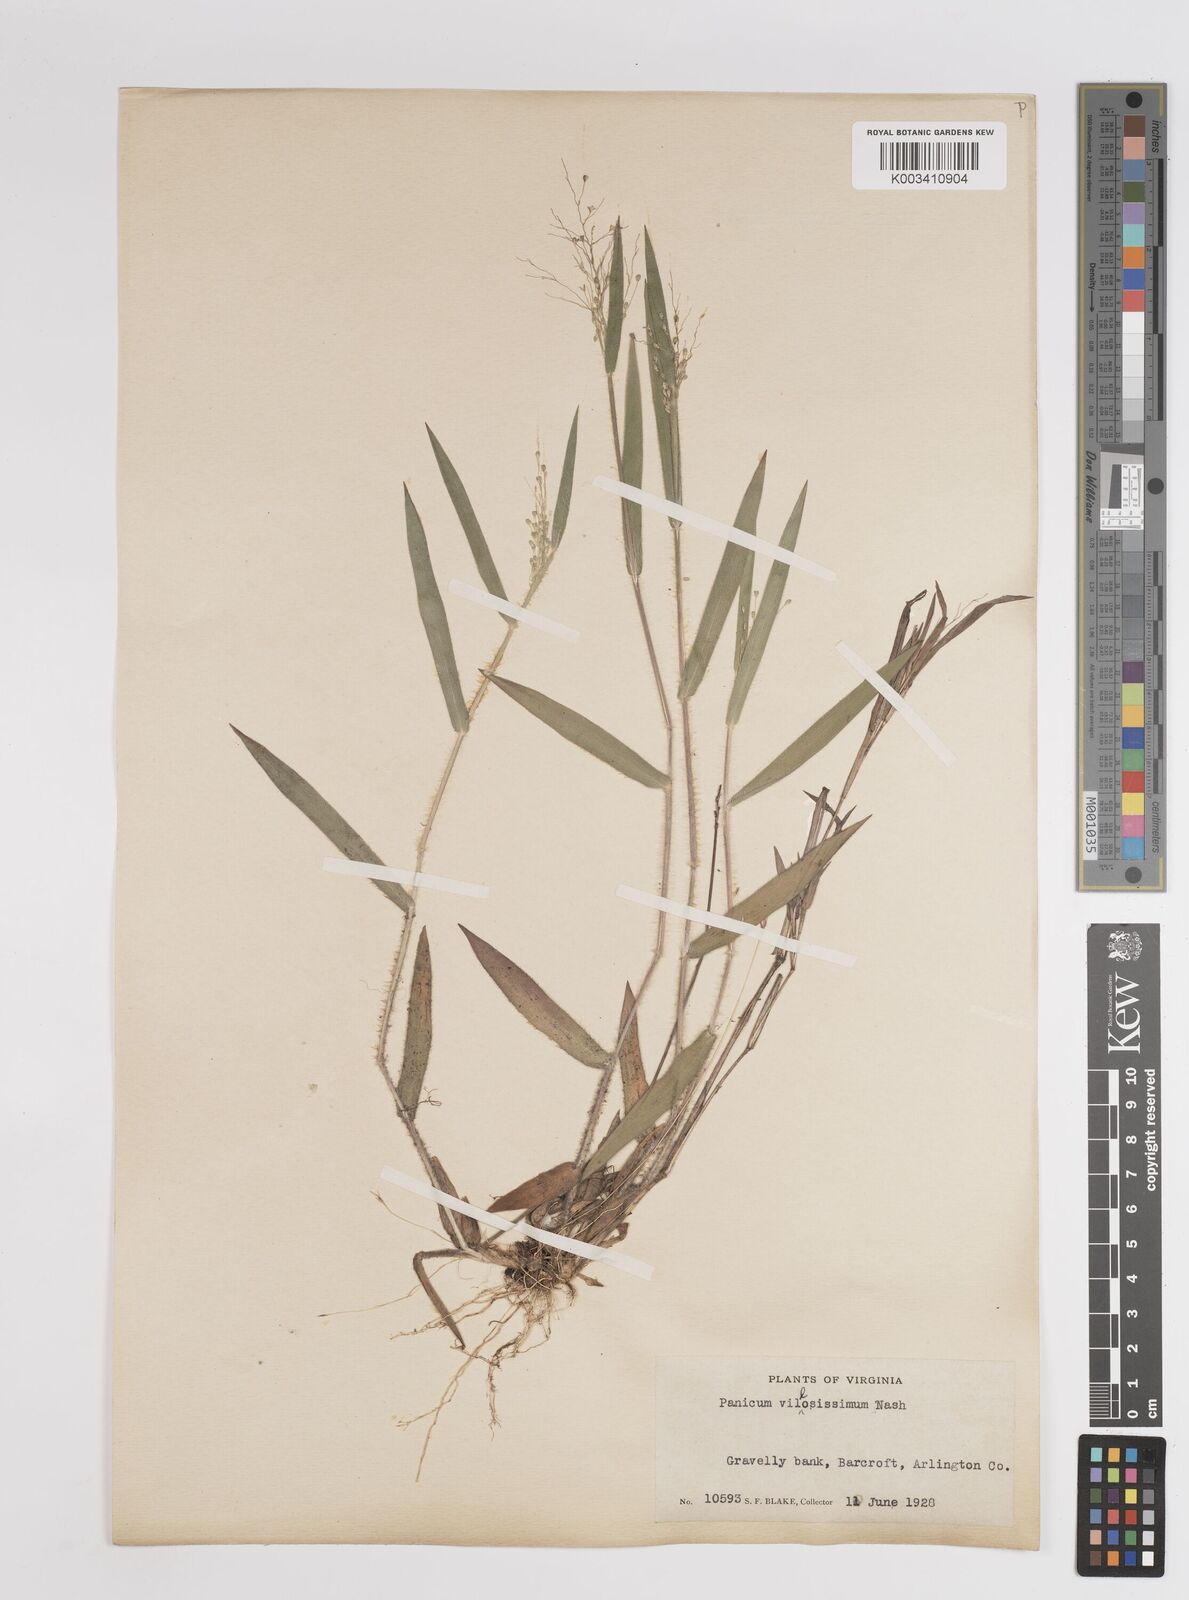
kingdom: Plantae
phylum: Tracheophyta
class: Liliopsida
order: Poales
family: Poaceae
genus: Dichanthelium
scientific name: Dichanthelium villosissimum
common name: White-haired panicgrass
